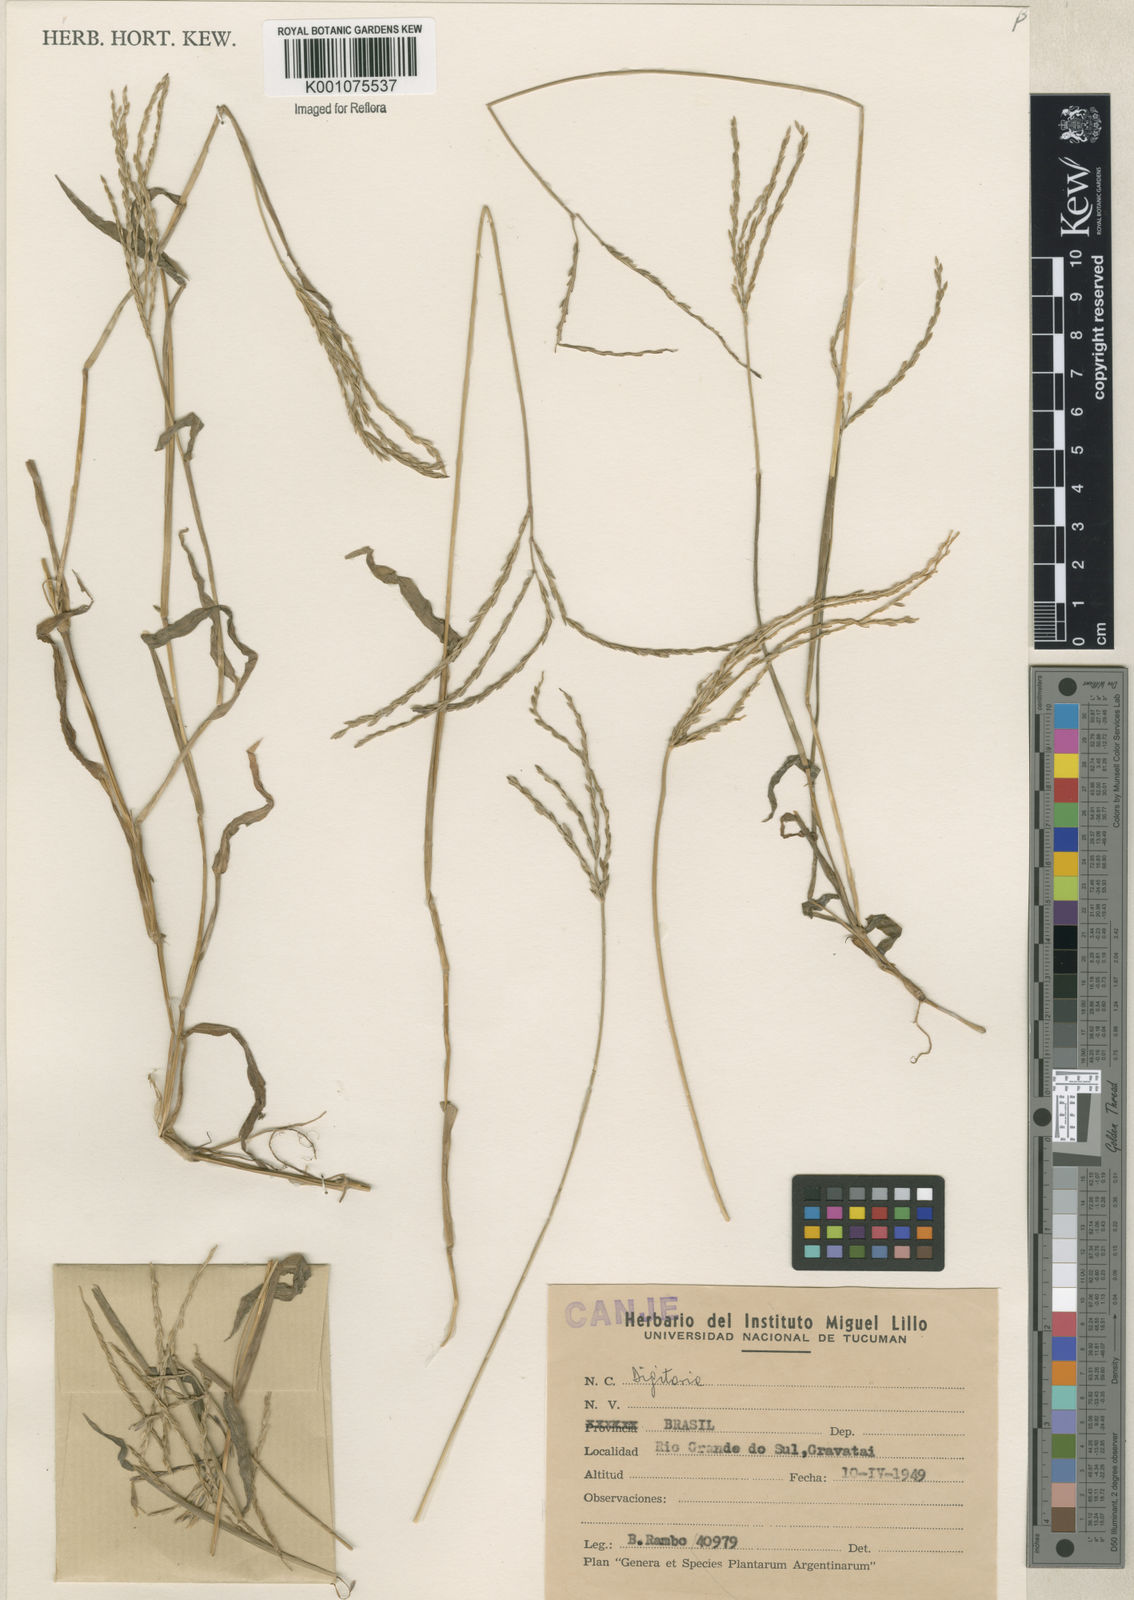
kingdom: Plantae
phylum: Tracheophyta
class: Liliopsida
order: Poales
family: Poaceae
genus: Digitaria
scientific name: Digitaria ciliaris
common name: Tropical finger-grass
